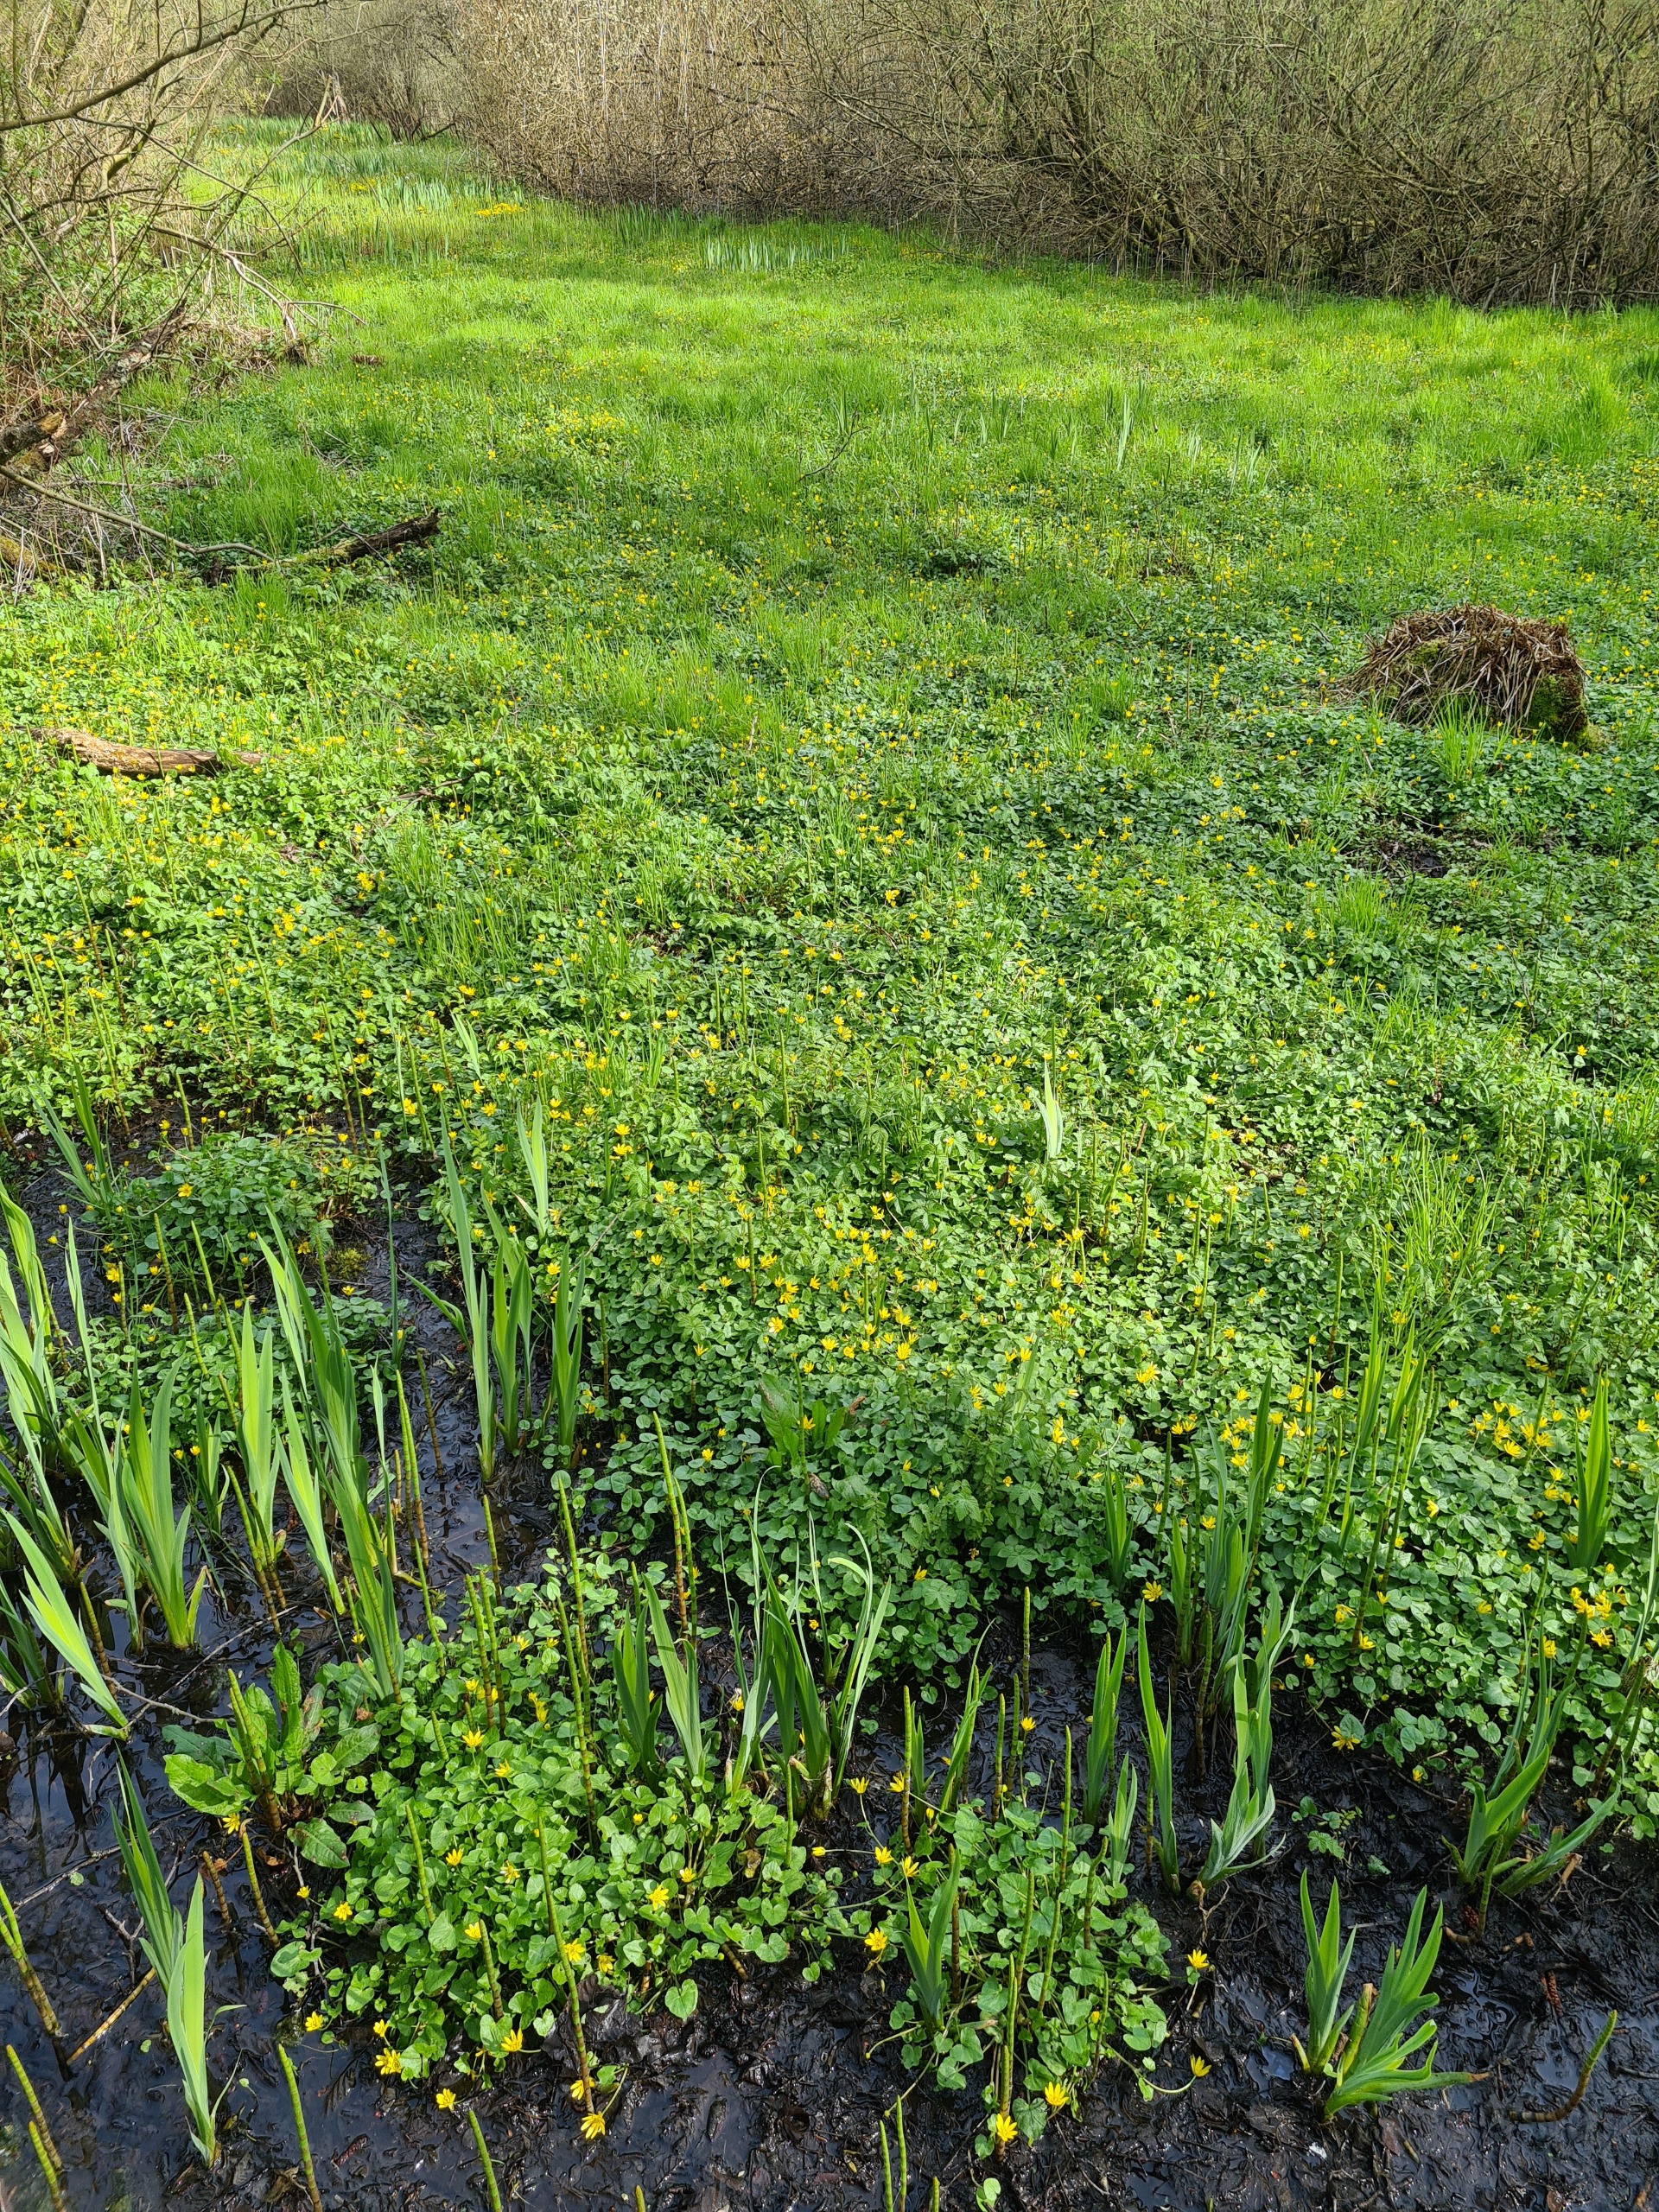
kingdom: Plantae
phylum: Tracheophyta
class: Magnoliopsida
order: Ranunculales
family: Ranunculaceae
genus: Ficaria
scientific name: Ficaria verna
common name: Vorterod
